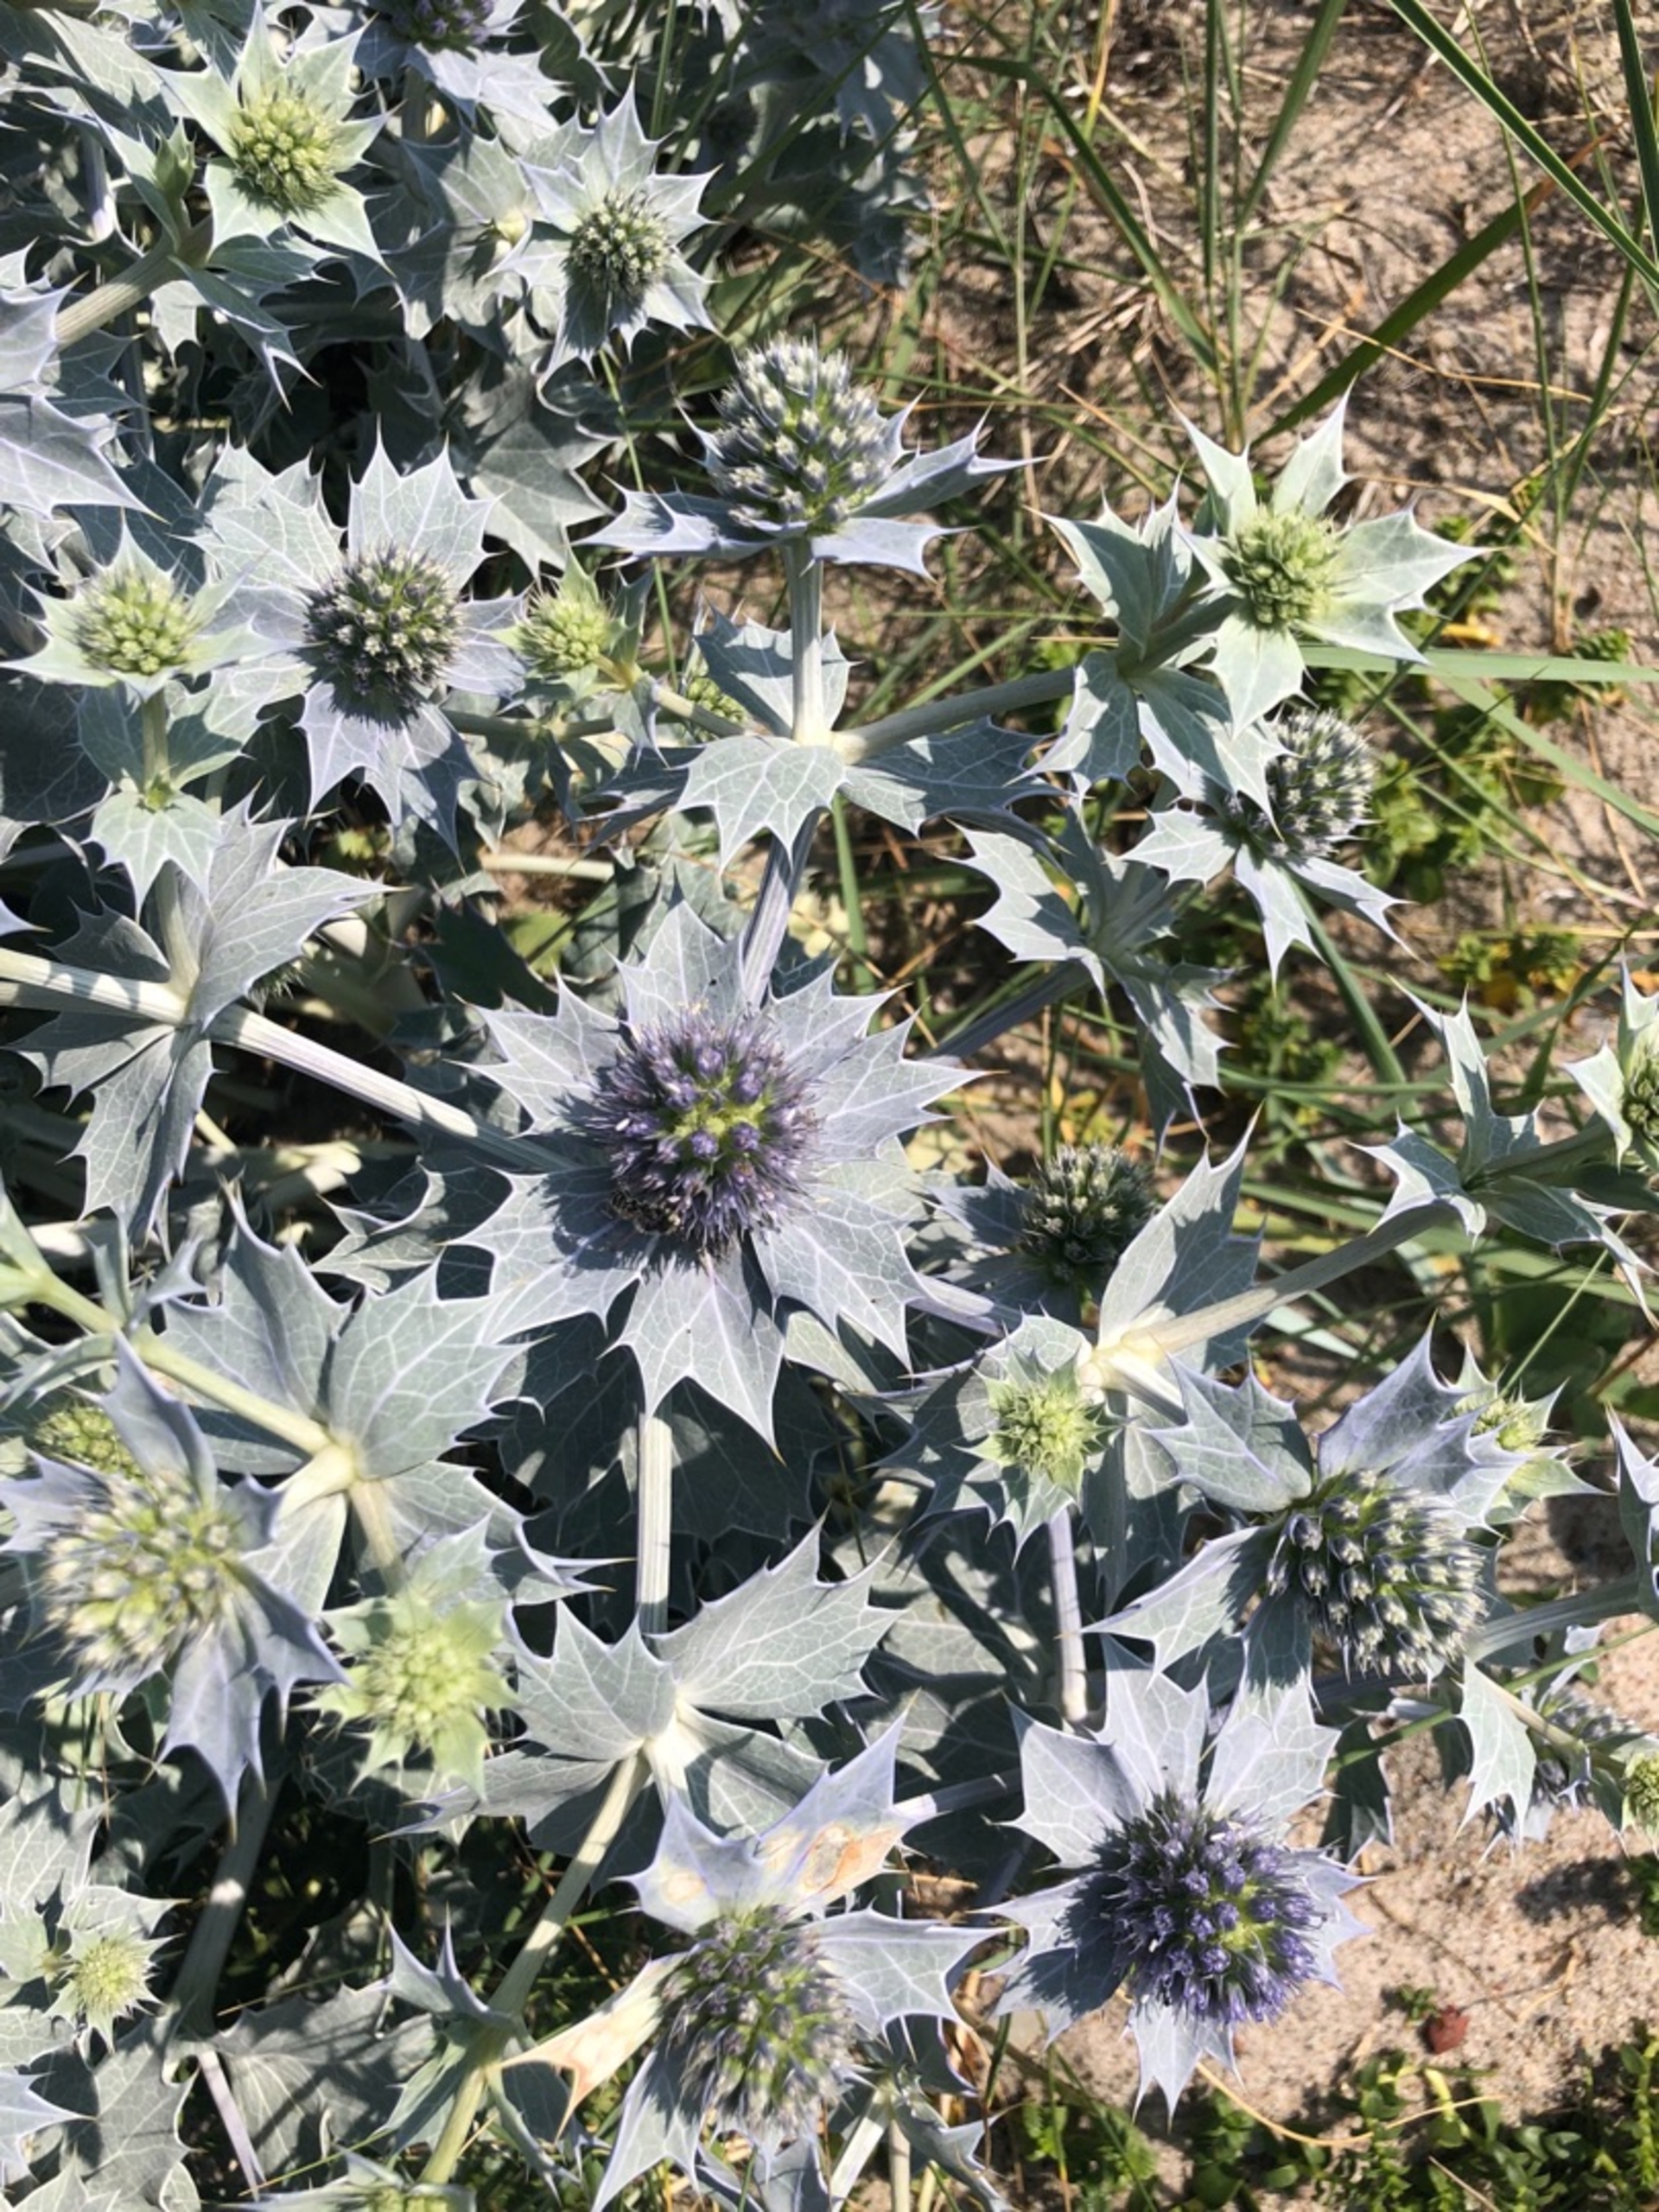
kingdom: Plantae
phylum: Tracheophyta
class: Magnoliopsida
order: Apiales
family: Apiaceae
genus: Eryngium
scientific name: Eryngium maritimum
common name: Strand-mandstro
